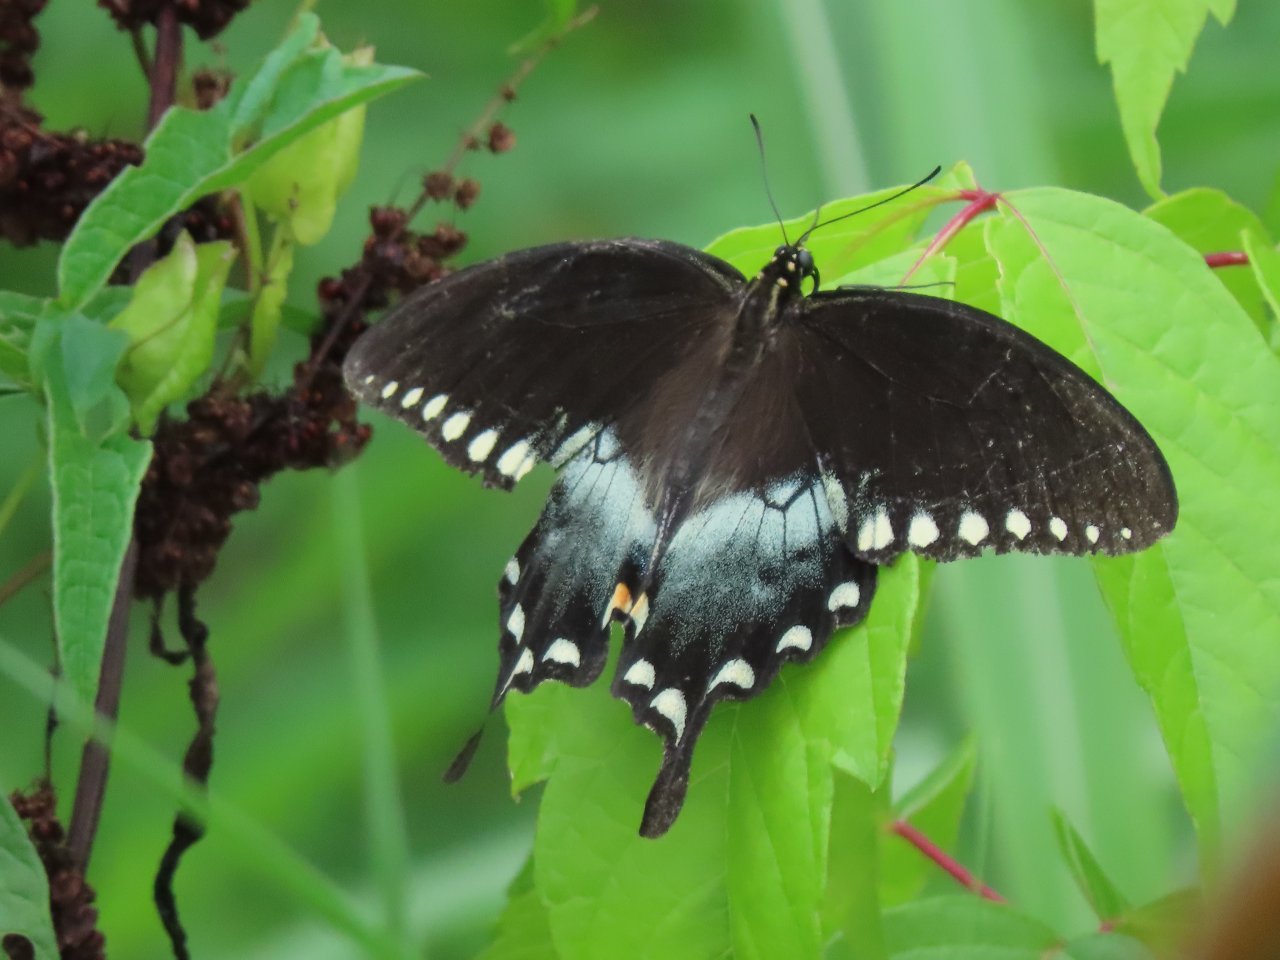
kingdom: Animalia
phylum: Arthropoda
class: Insecta
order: Lepidoptera
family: Papilionidae
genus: Pterourus
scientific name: Pterourus troilus
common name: Spicebush Swallowtail
